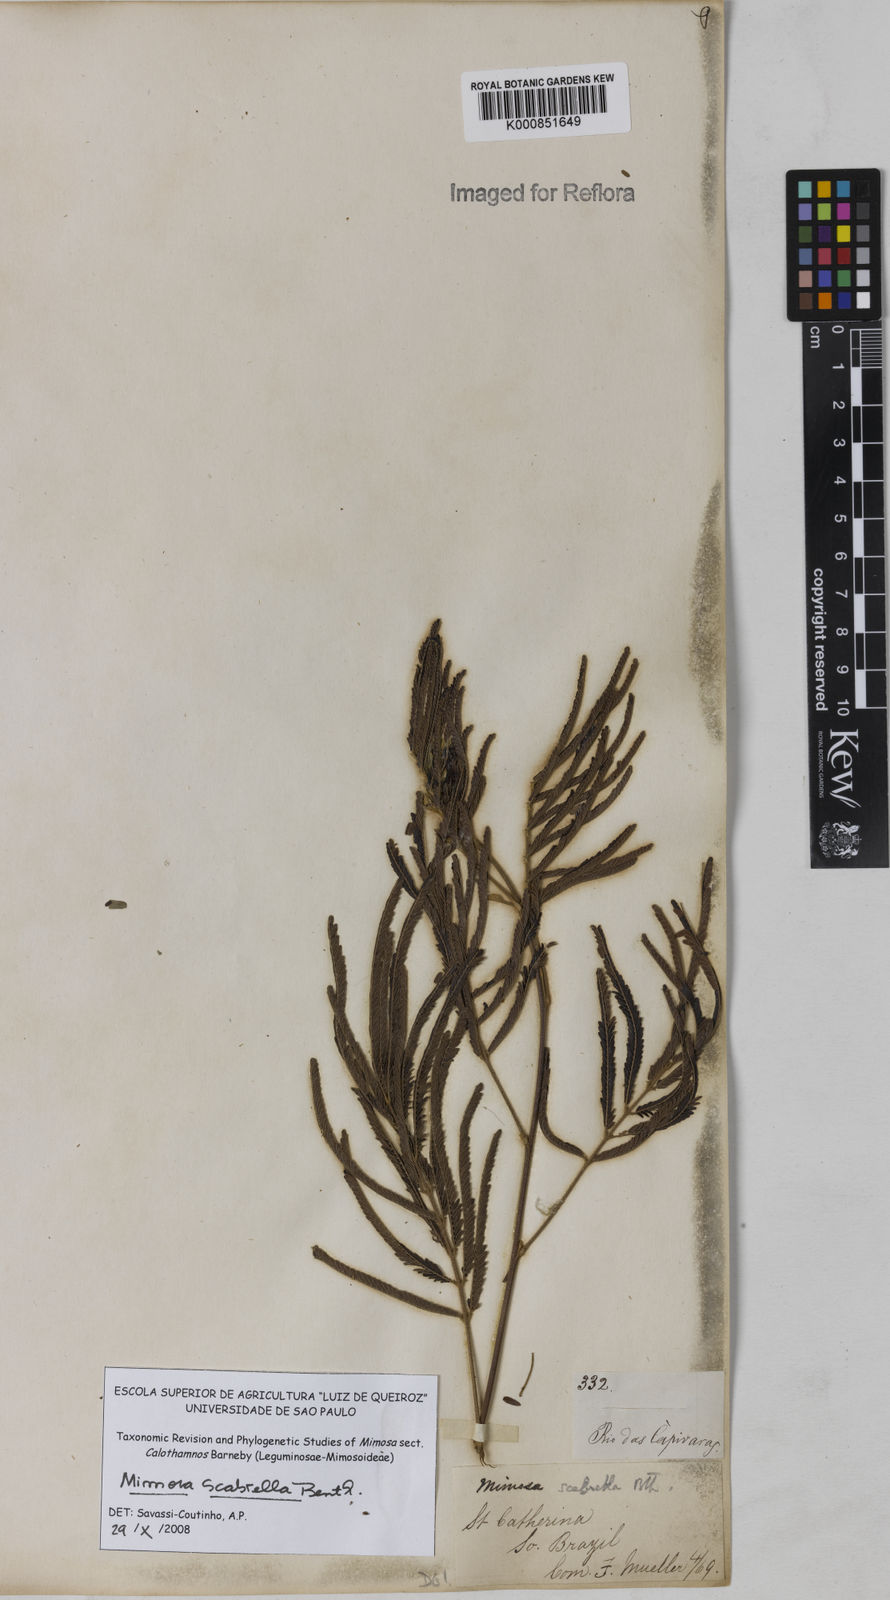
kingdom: Plantae
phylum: Tracheophyta
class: Magnoliopsida
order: Fabales
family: Fabaceae
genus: Mimosa
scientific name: Mimosa scabrella
